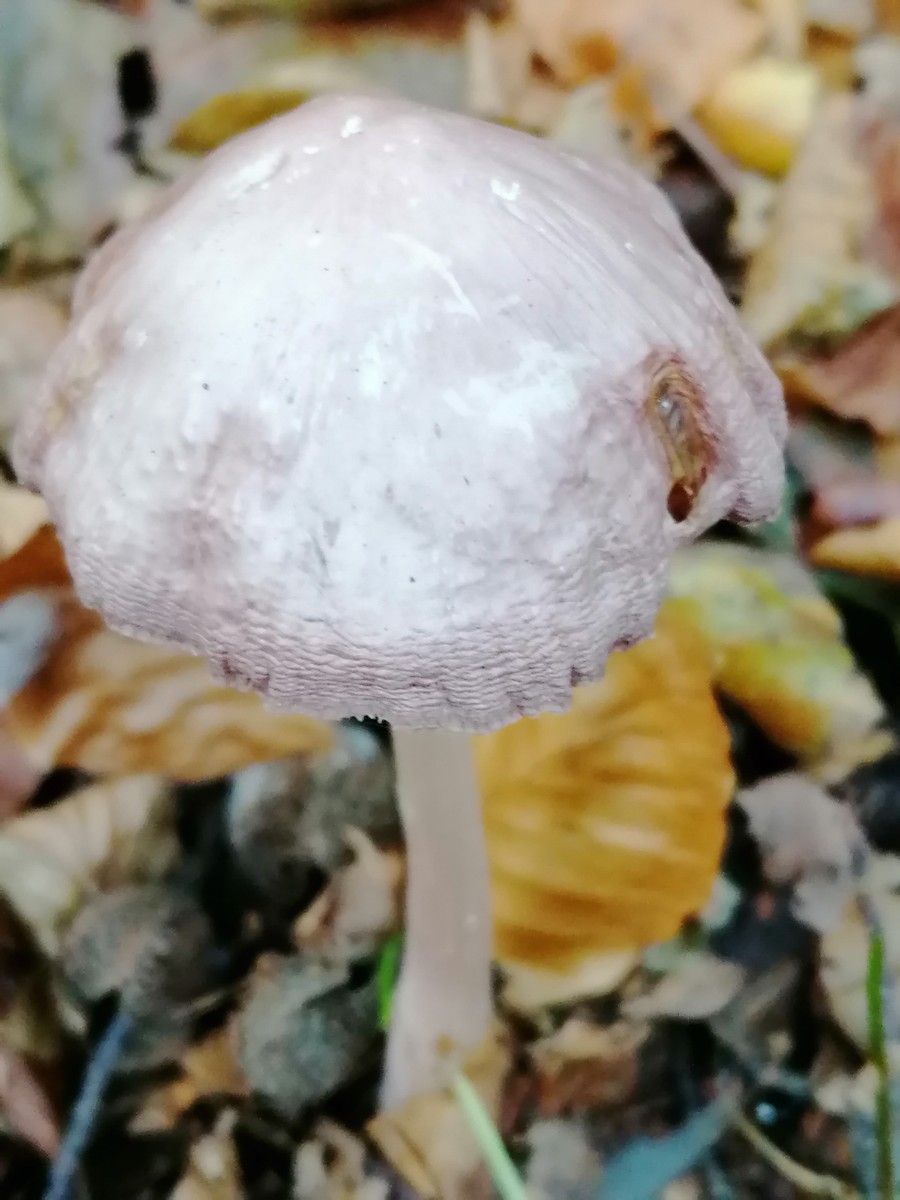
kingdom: Fungi
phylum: Basidiomycota
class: Agaricomycetes
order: Agaricales
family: Mycenaceae
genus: Mycena
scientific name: Mycena rosea
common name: rosa huesvamp
